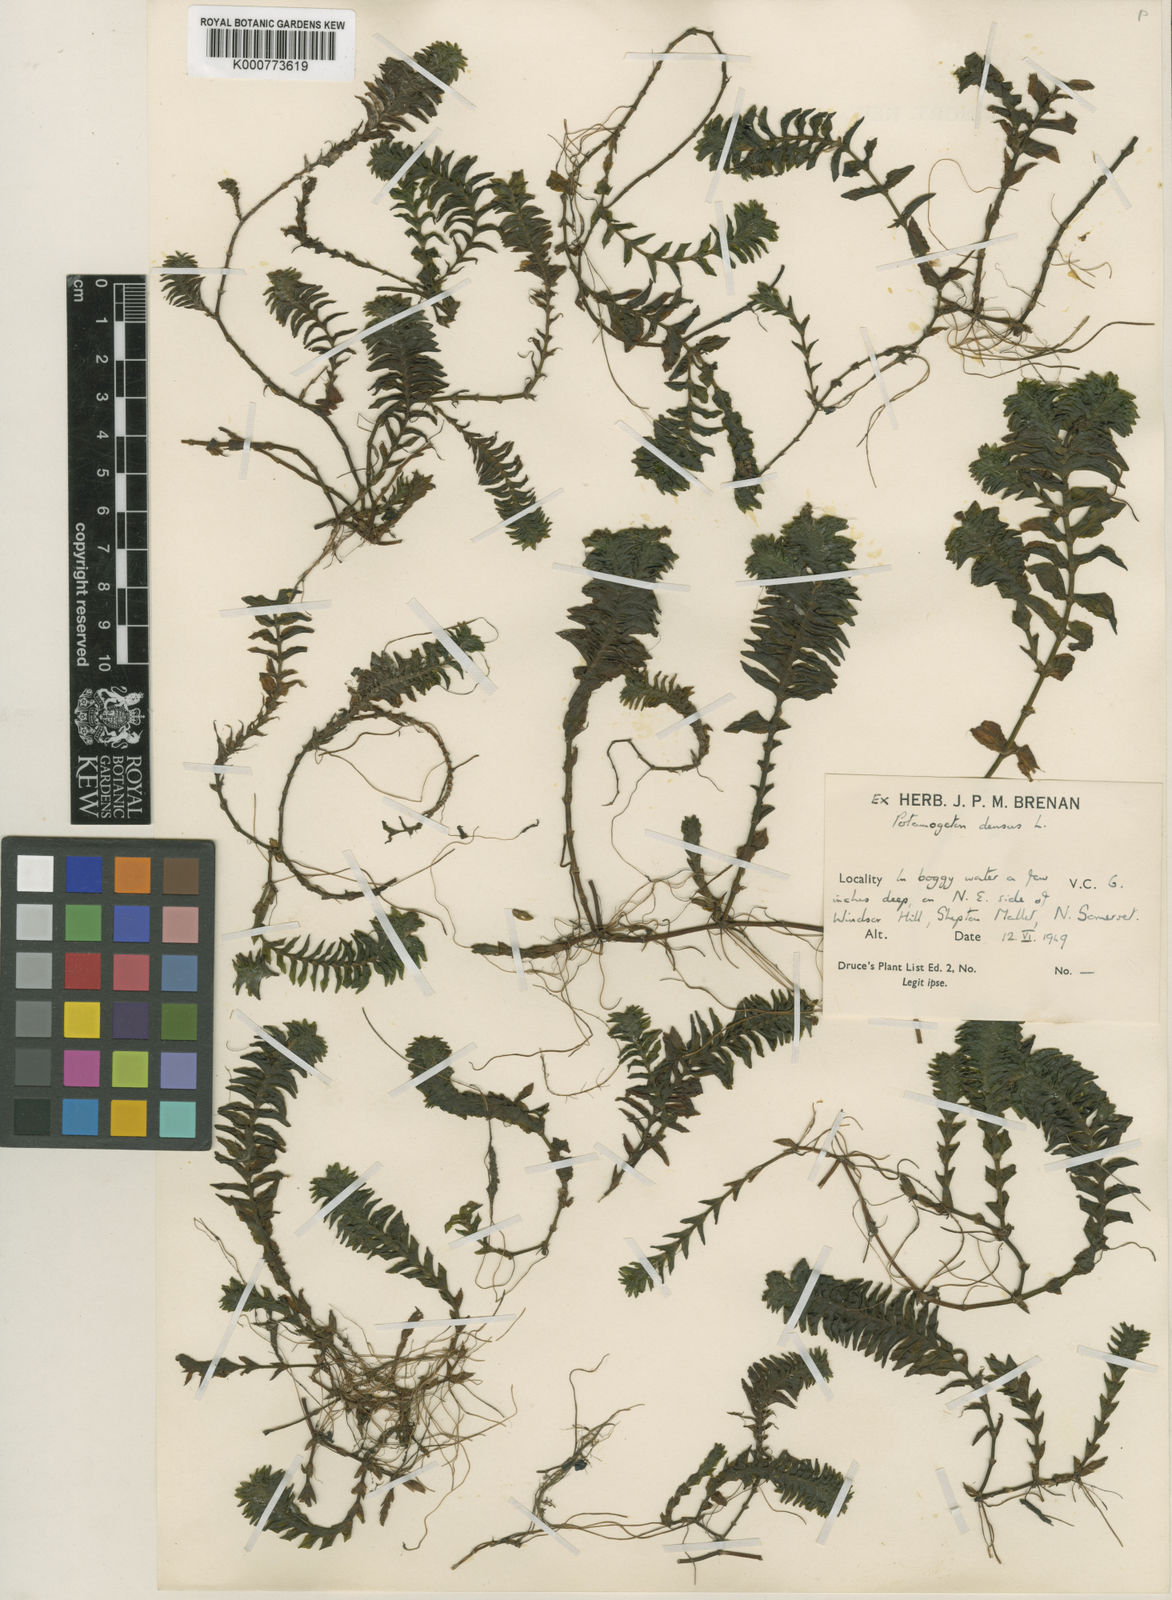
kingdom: Plantae
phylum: Tracheophyta
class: Liliopsida
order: Alismatales
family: Potamogetonaceae
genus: Groenlandia
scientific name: Groenlandia densa
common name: Opposite-leaved pondweed
